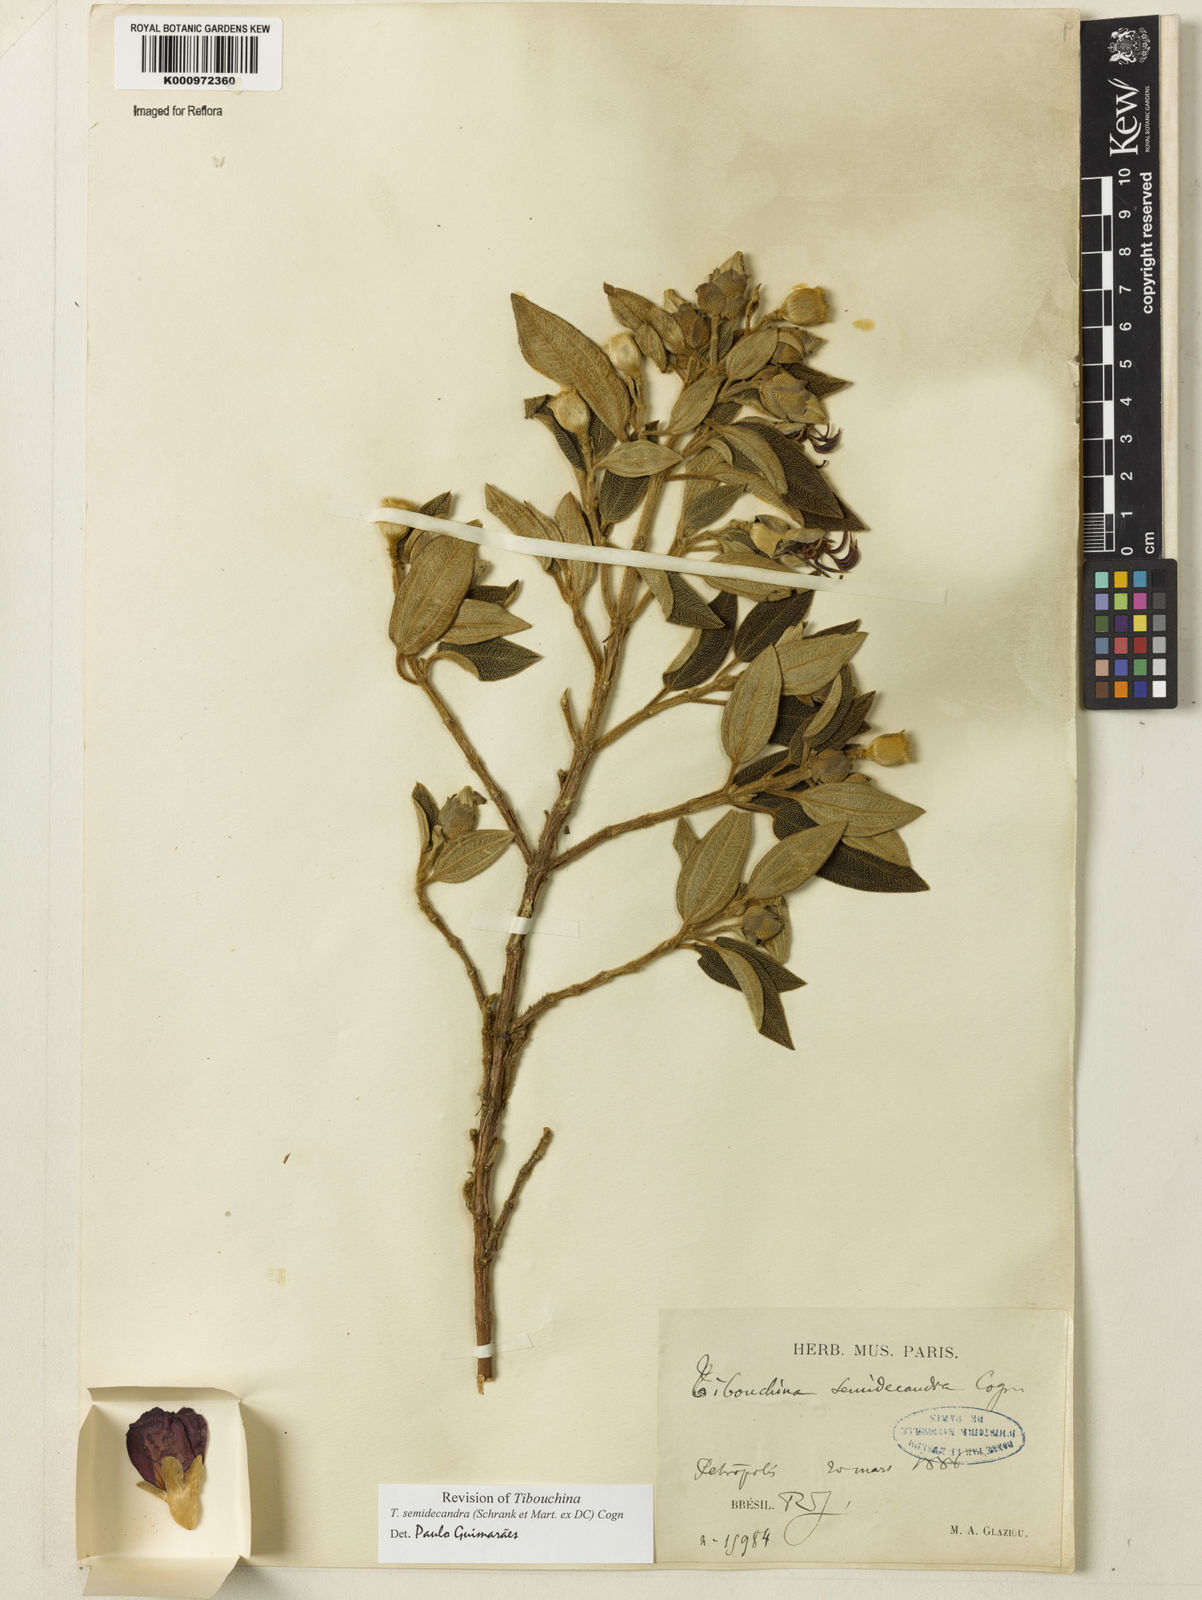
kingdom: Plantae
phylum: Tracheophyta
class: Magnoliopsida
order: Myrtales
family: Melastomataceae
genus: Pleroma
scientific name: Pleroma semidecandrum
